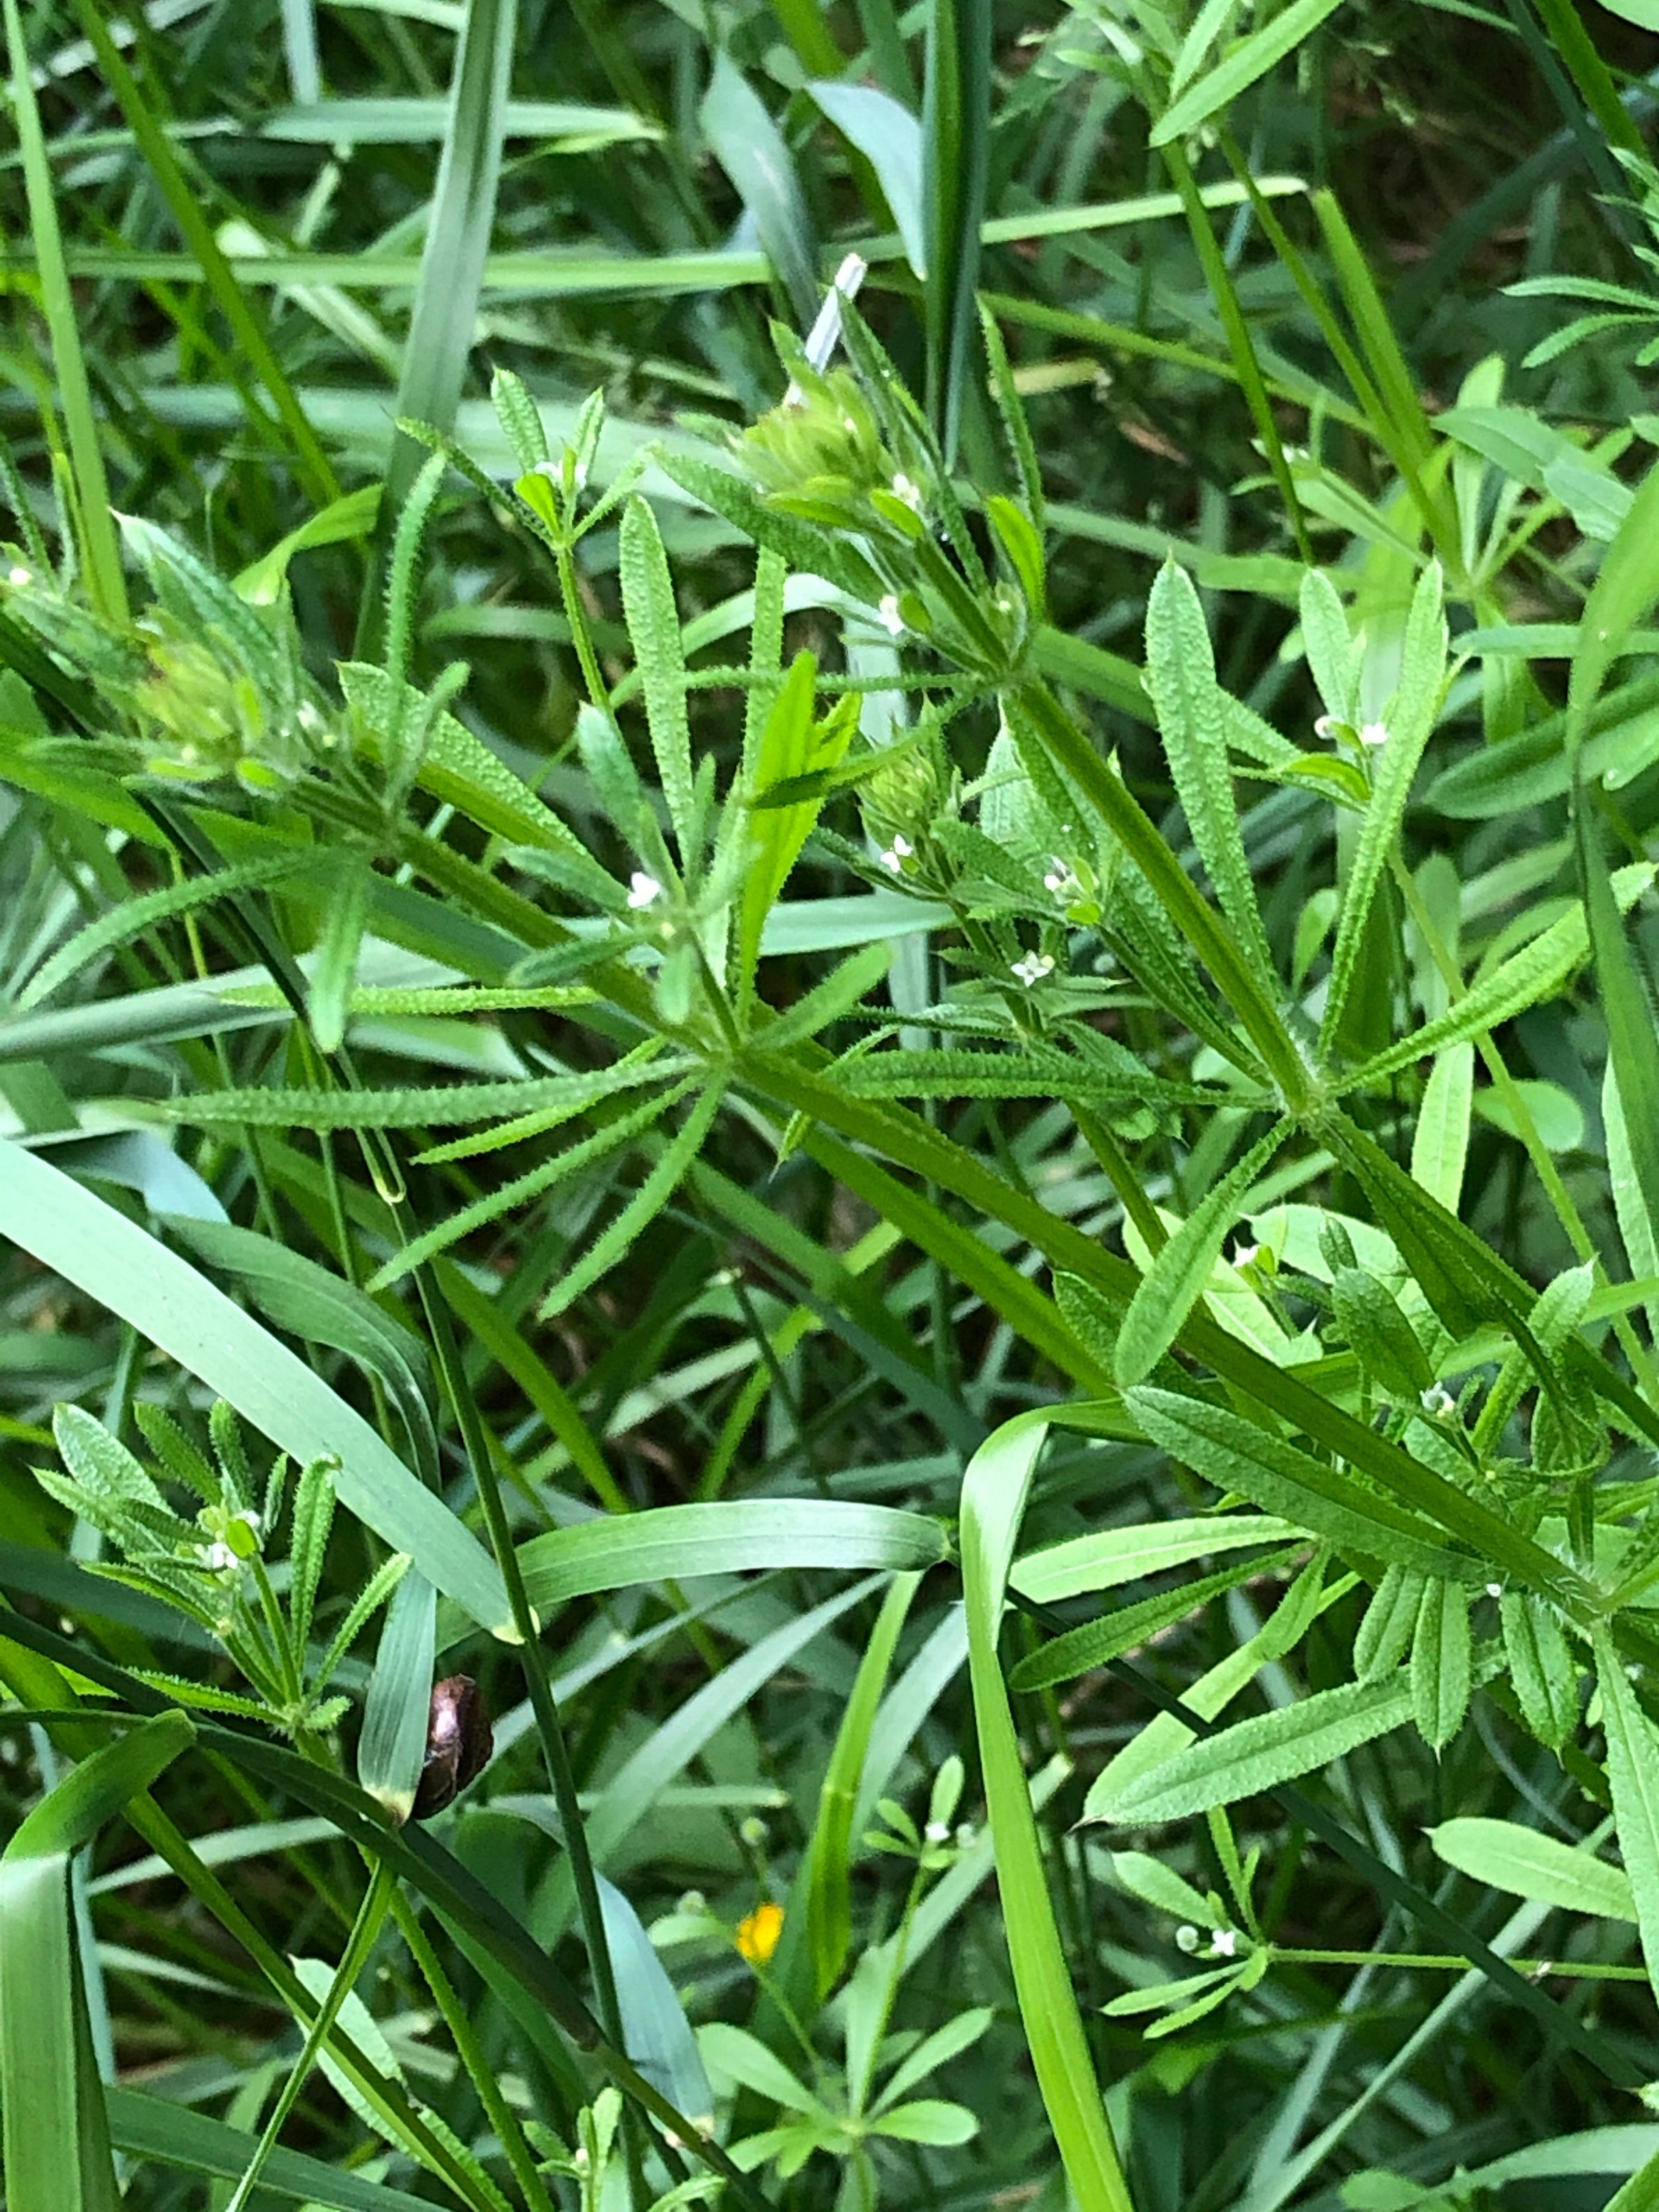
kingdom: Plantae
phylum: Tracheophyta
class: Magnoliopsida
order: Gentianales
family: Rubiaceae
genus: Galium
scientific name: Galium aparine
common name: Burre-snerre
